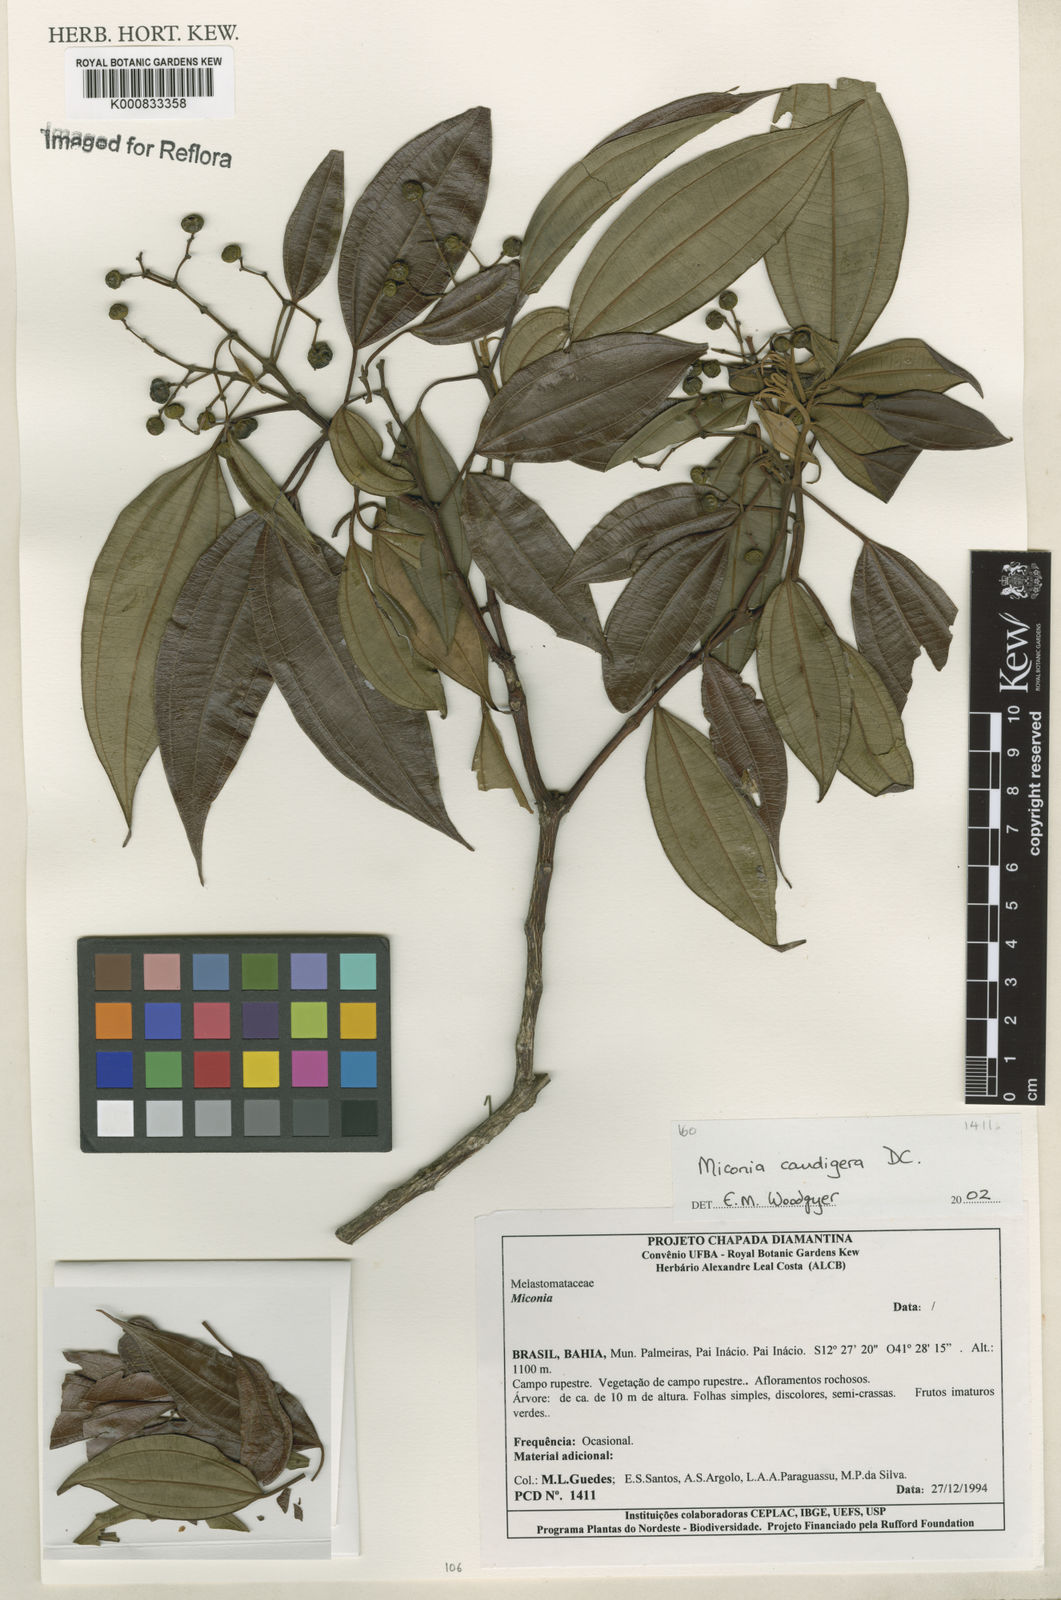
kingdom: Plantae
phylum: Tracheophyta
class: Magnoliopsida
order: Myrtales
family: Melastomataceae
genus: Miconia
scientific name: Miconia caudigera
